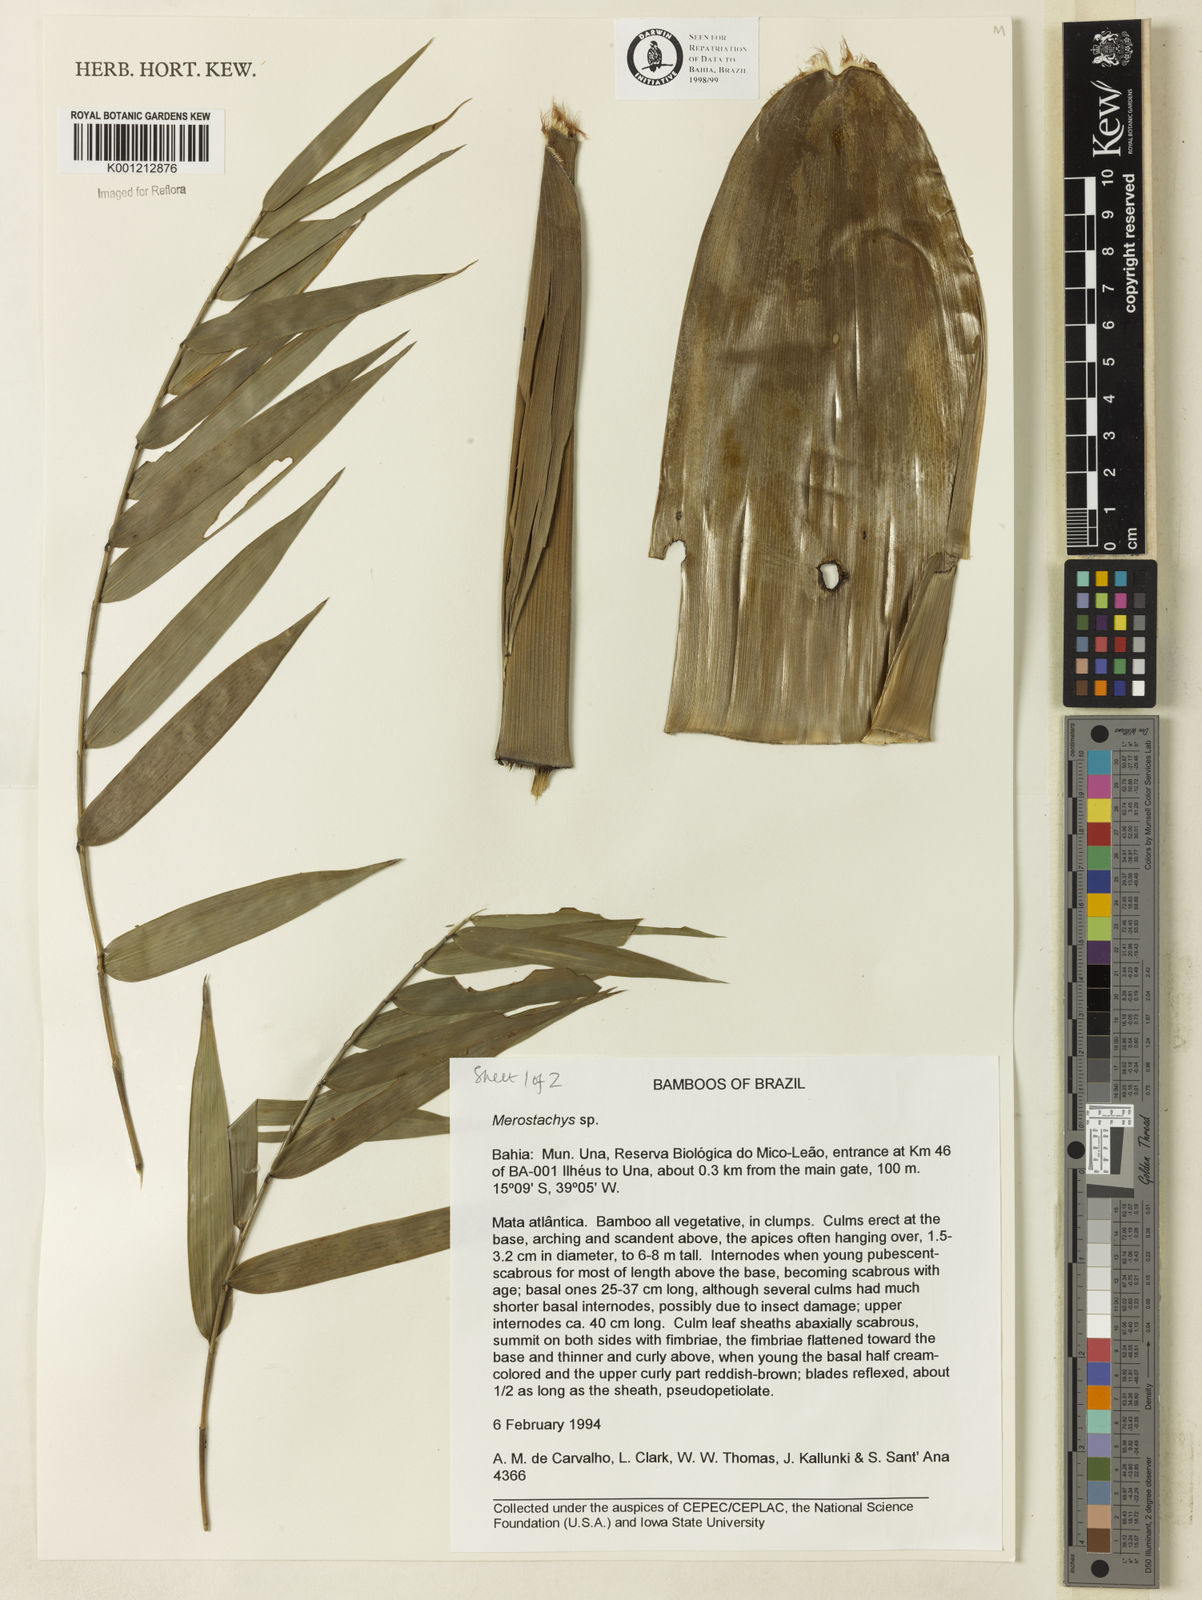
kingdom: Plantae
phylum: Tracheophyta
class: Liliopsida
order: Poales
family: Poaceae
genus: Merostachys
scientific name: Merostachys
